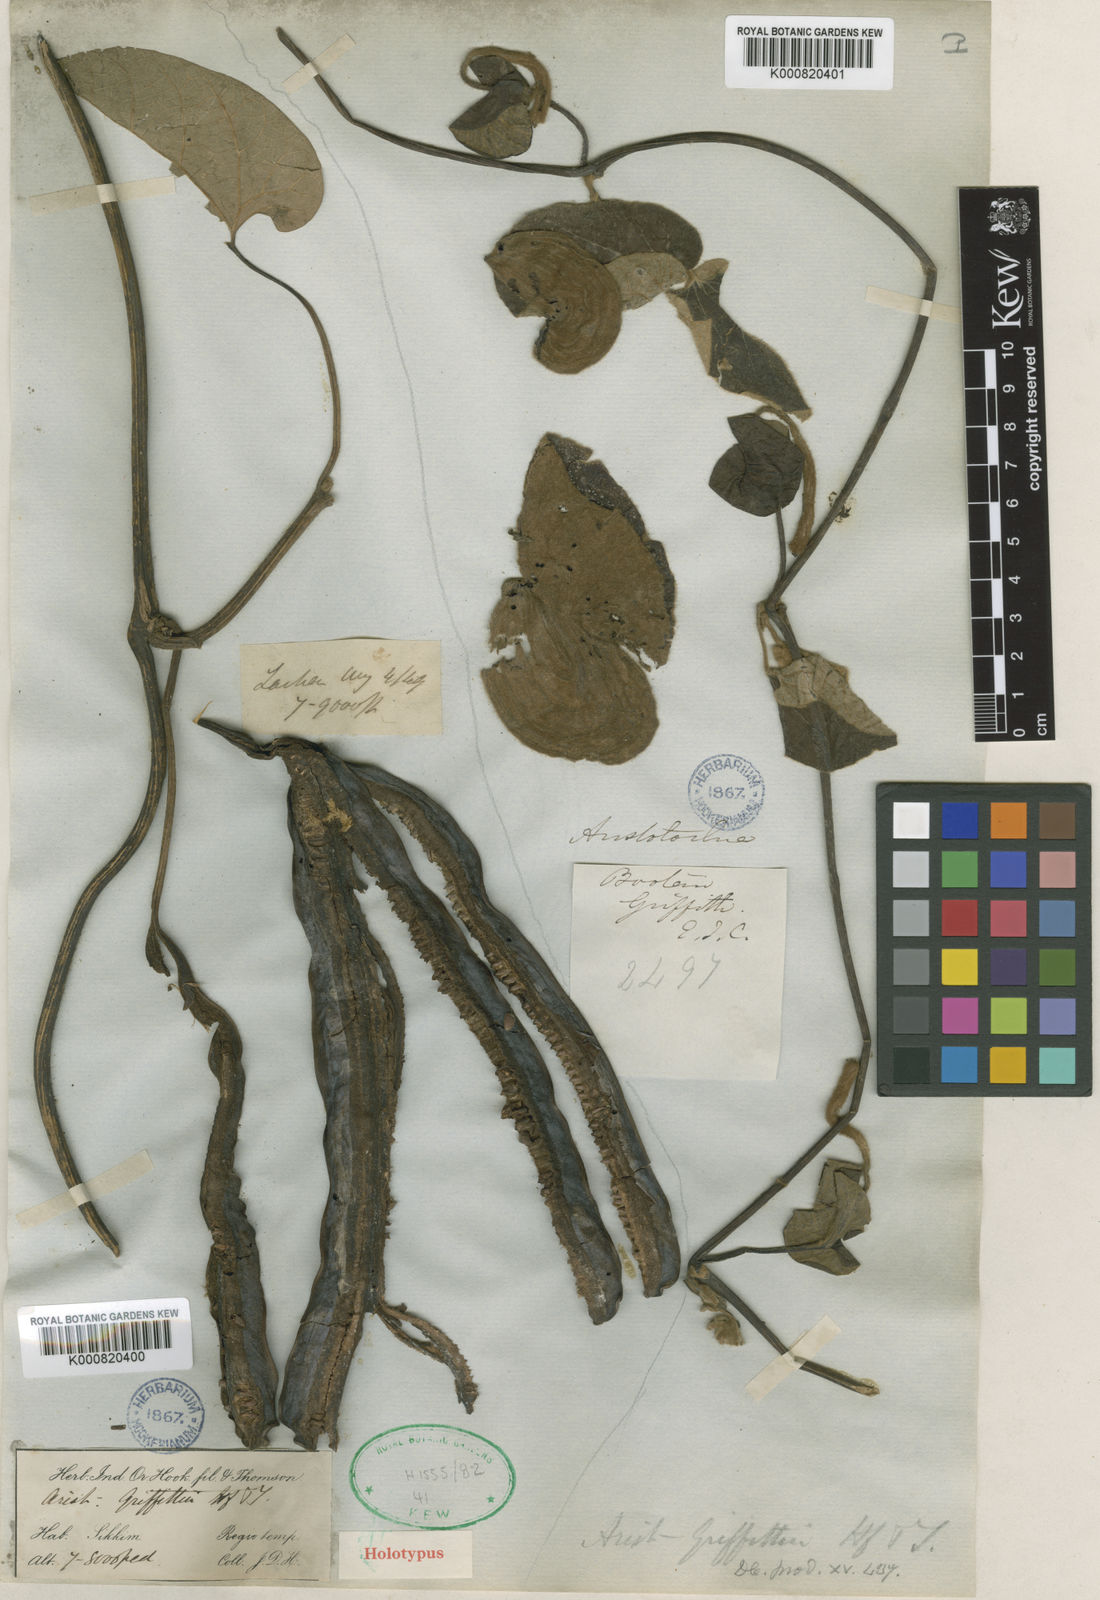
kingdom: Plantae
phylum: Tracheophyta
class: Magnoliopsida
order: Piperales
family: Aristolochiaceae
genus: Isotrema
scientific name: Isotrema griffithii
